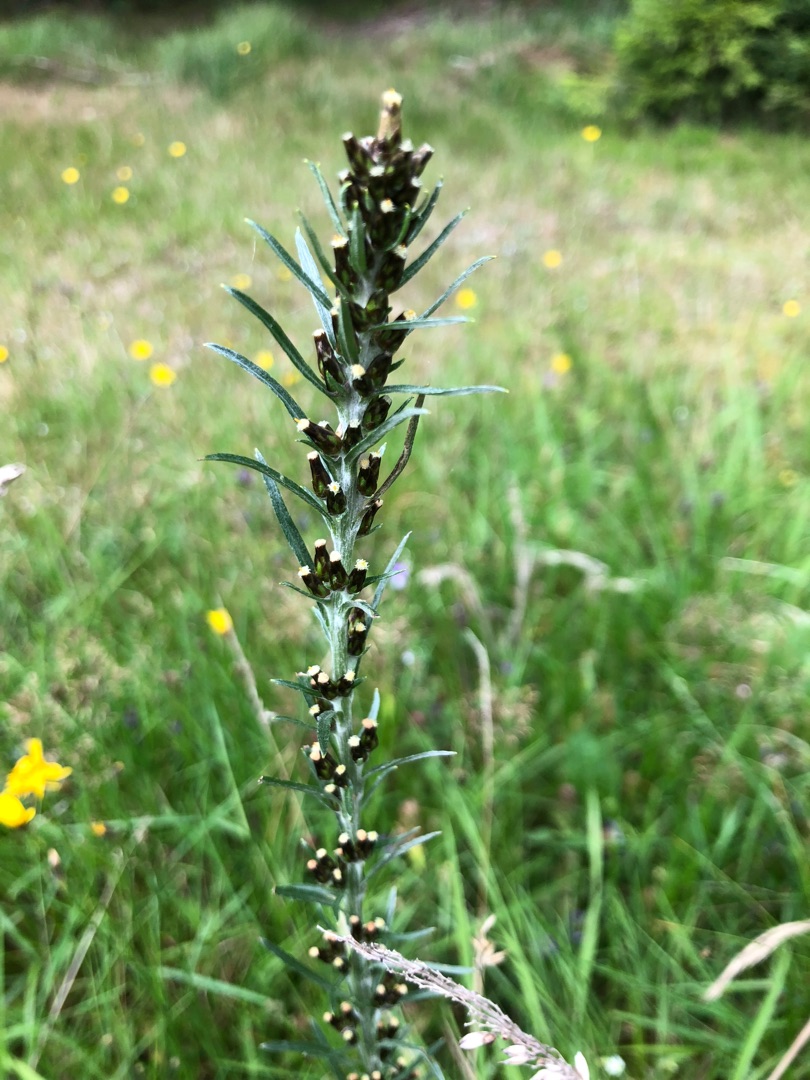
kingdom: Plantae
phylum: Tracheophyta
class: Magnoliopsida
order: Asterales
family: Asteraceae
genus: Omalotheca
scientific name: Omalotheca sylvatica
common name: Rank evighedsblomst
